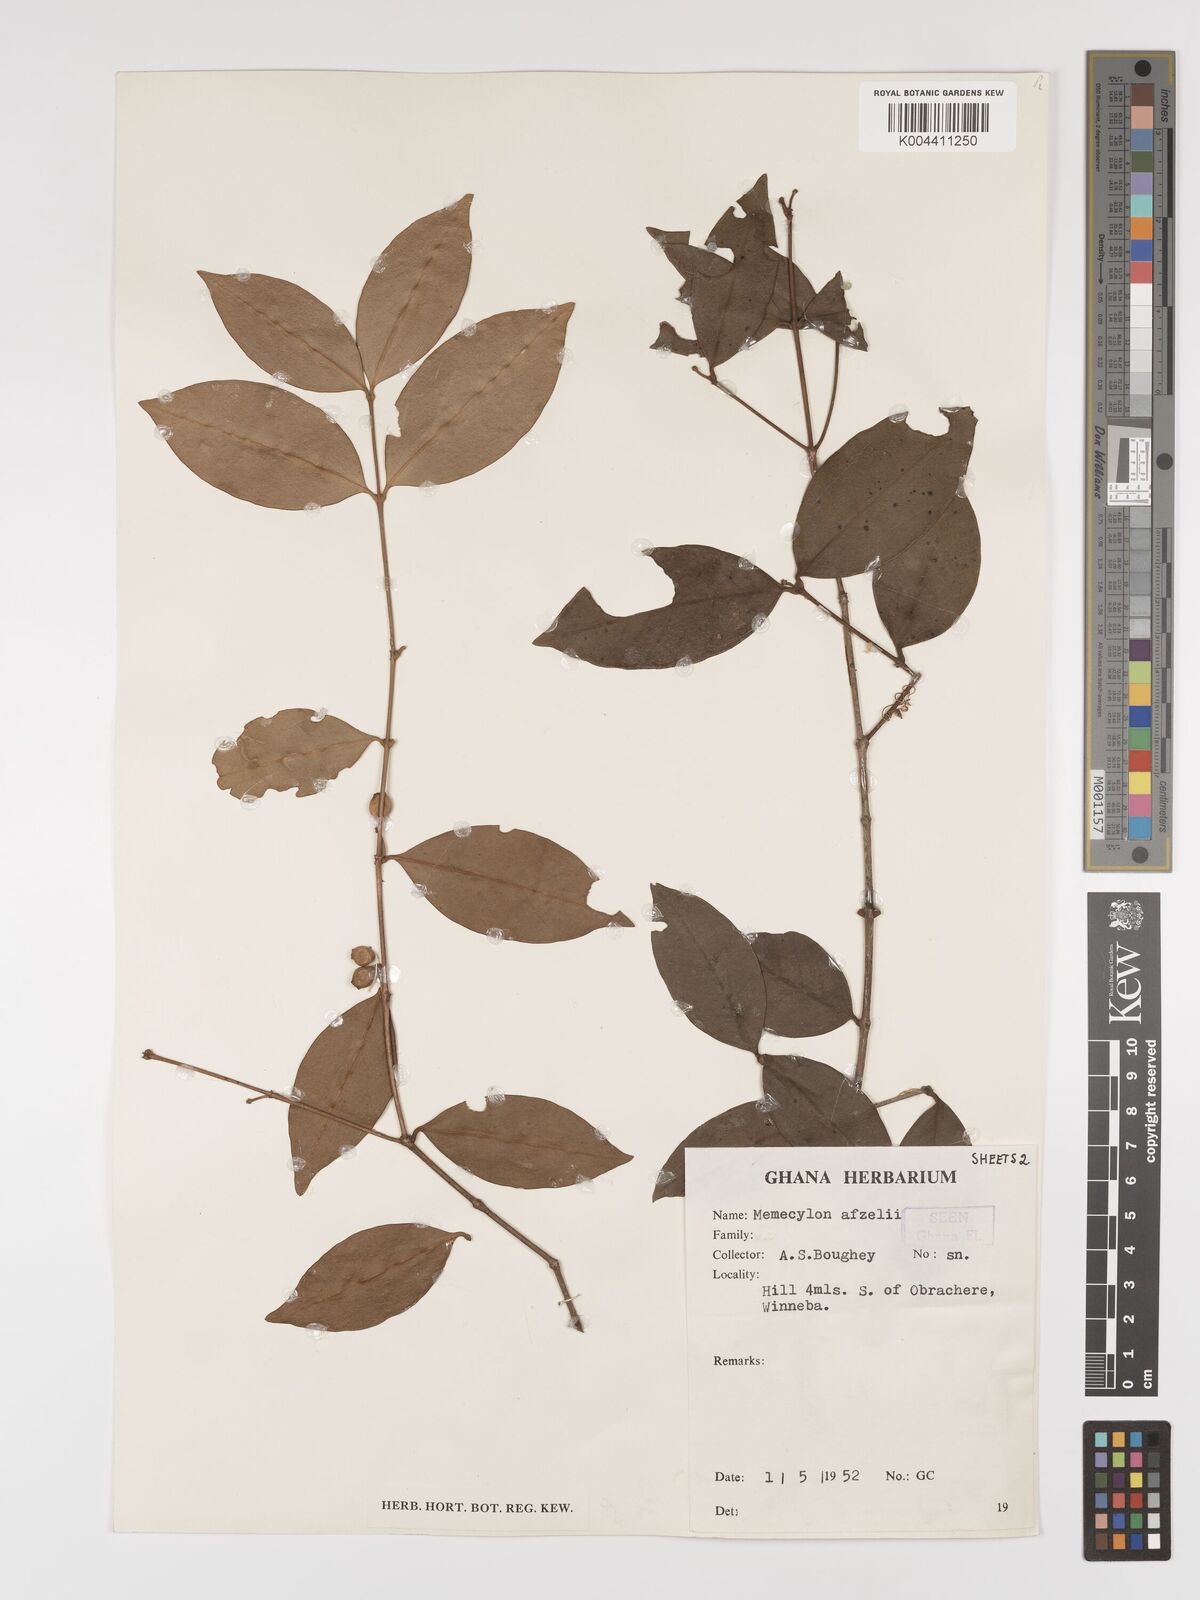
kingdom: Plantae
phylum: Tracheophyta
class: Magnoliopsida
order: Myrtales
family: Melastomataceae
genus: Memecylon
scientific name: Memecylon afzelii
